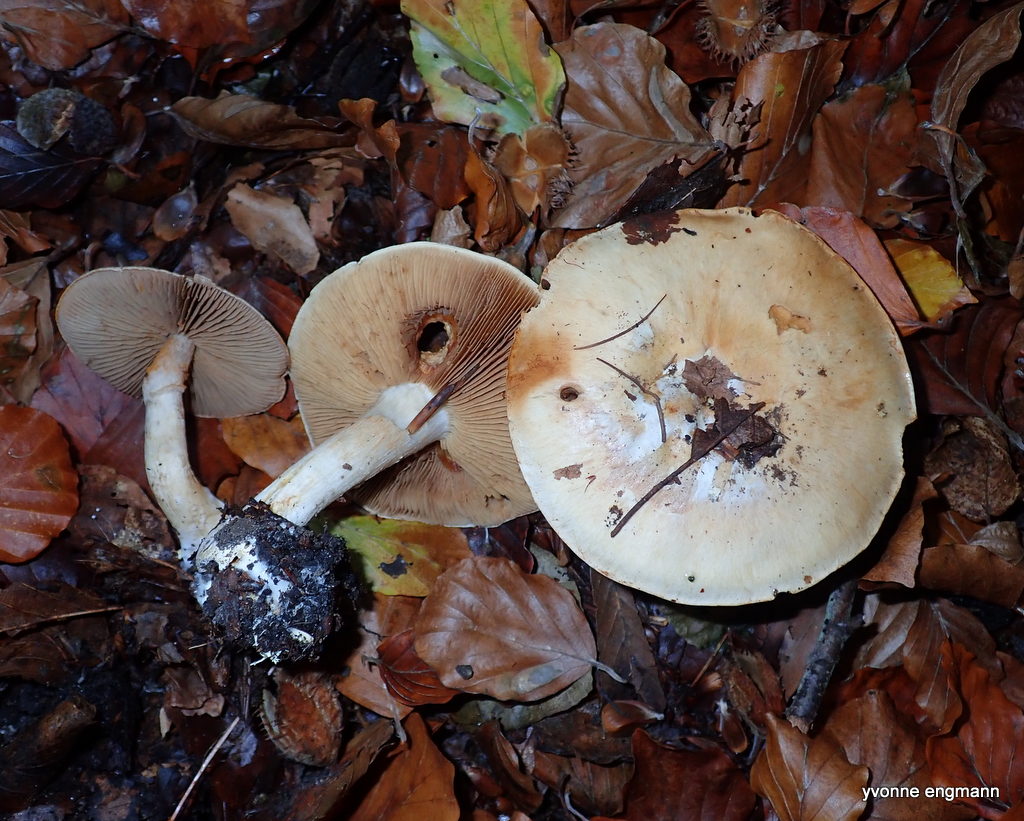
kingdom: Fungi
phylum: Basidiomycota
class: Agaricomycetes
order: Agaricales
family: Hymenogastraceae
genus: Hebeloma
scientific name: Hebeloma
